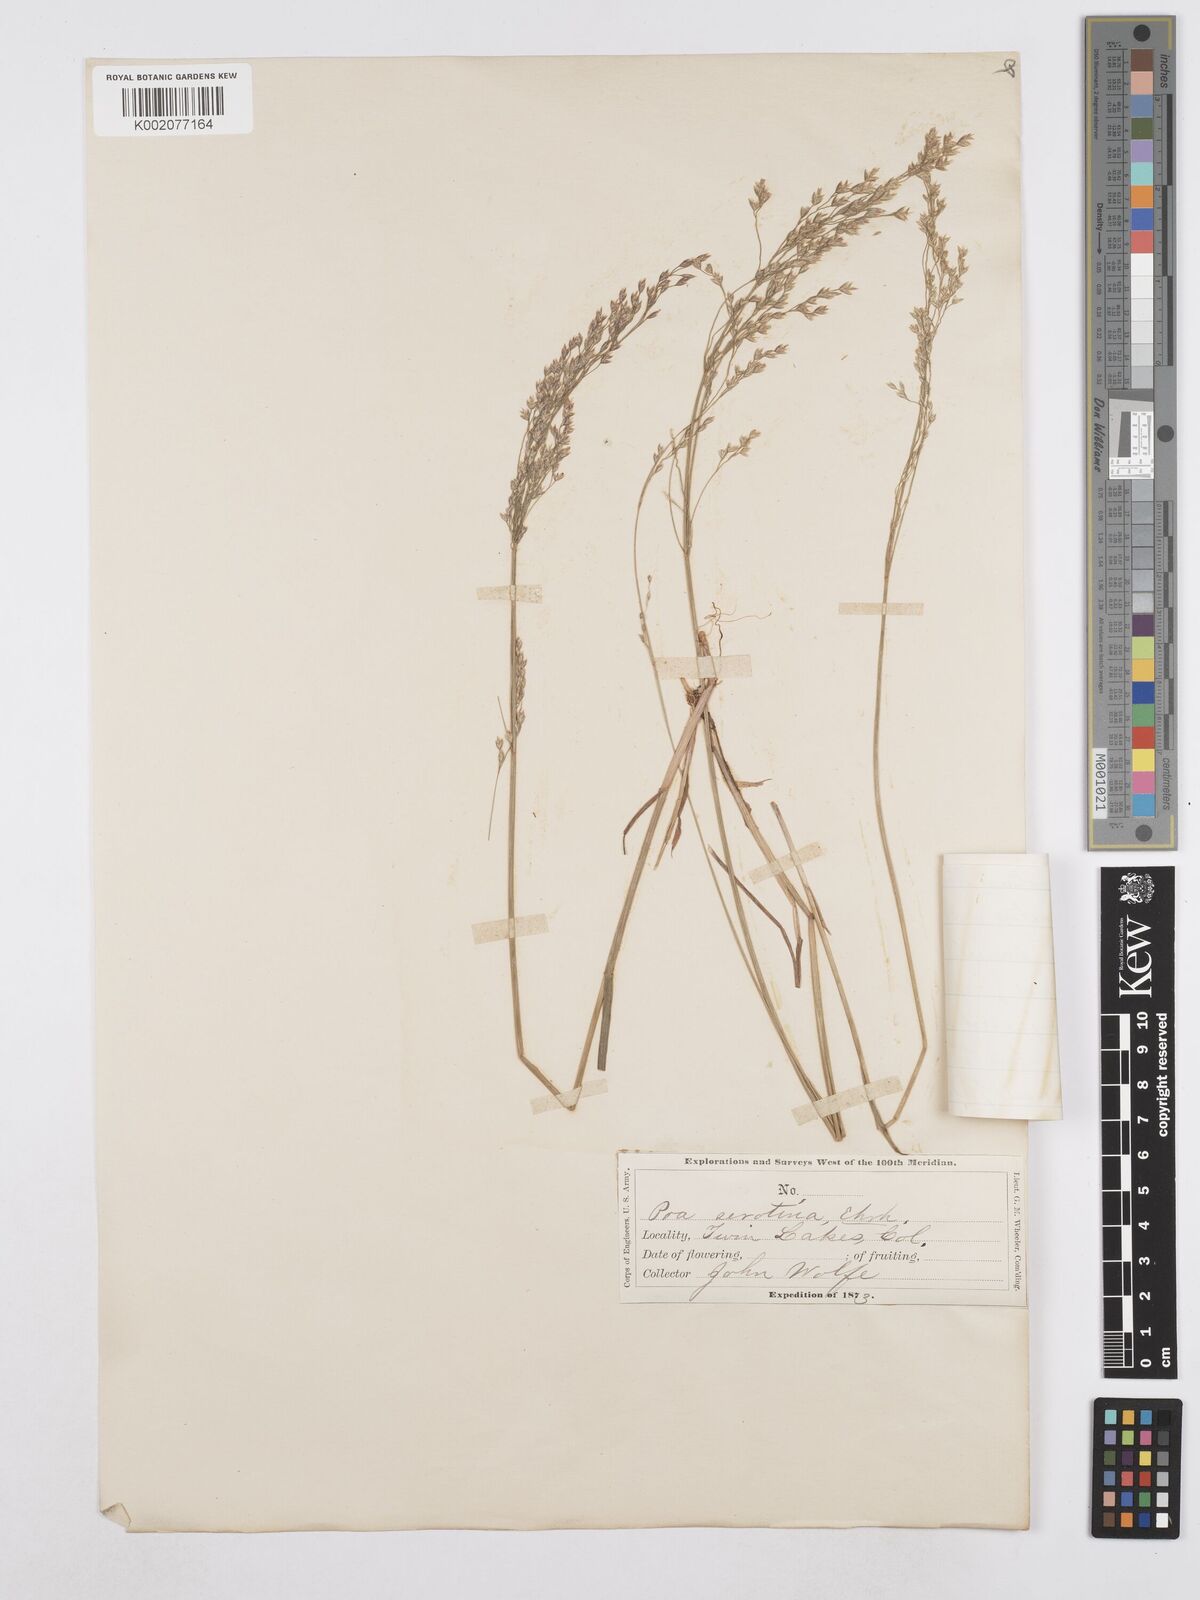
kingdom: Plantae
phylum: Tracheophyta
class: Liliopsida
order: Poales
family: Poaceae
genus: Poa
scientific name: Poa palustris
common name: Swamp meadow-grass
